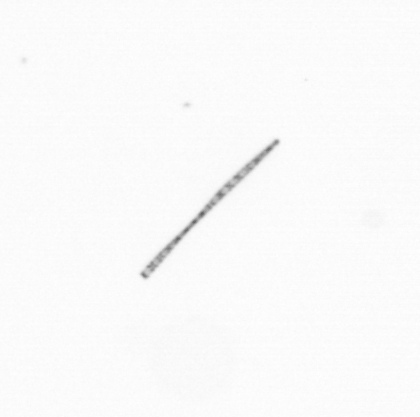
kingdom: Chromista
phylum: Ochrophyta
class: Bacillariophyceae
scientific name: Bacillariophyceae
